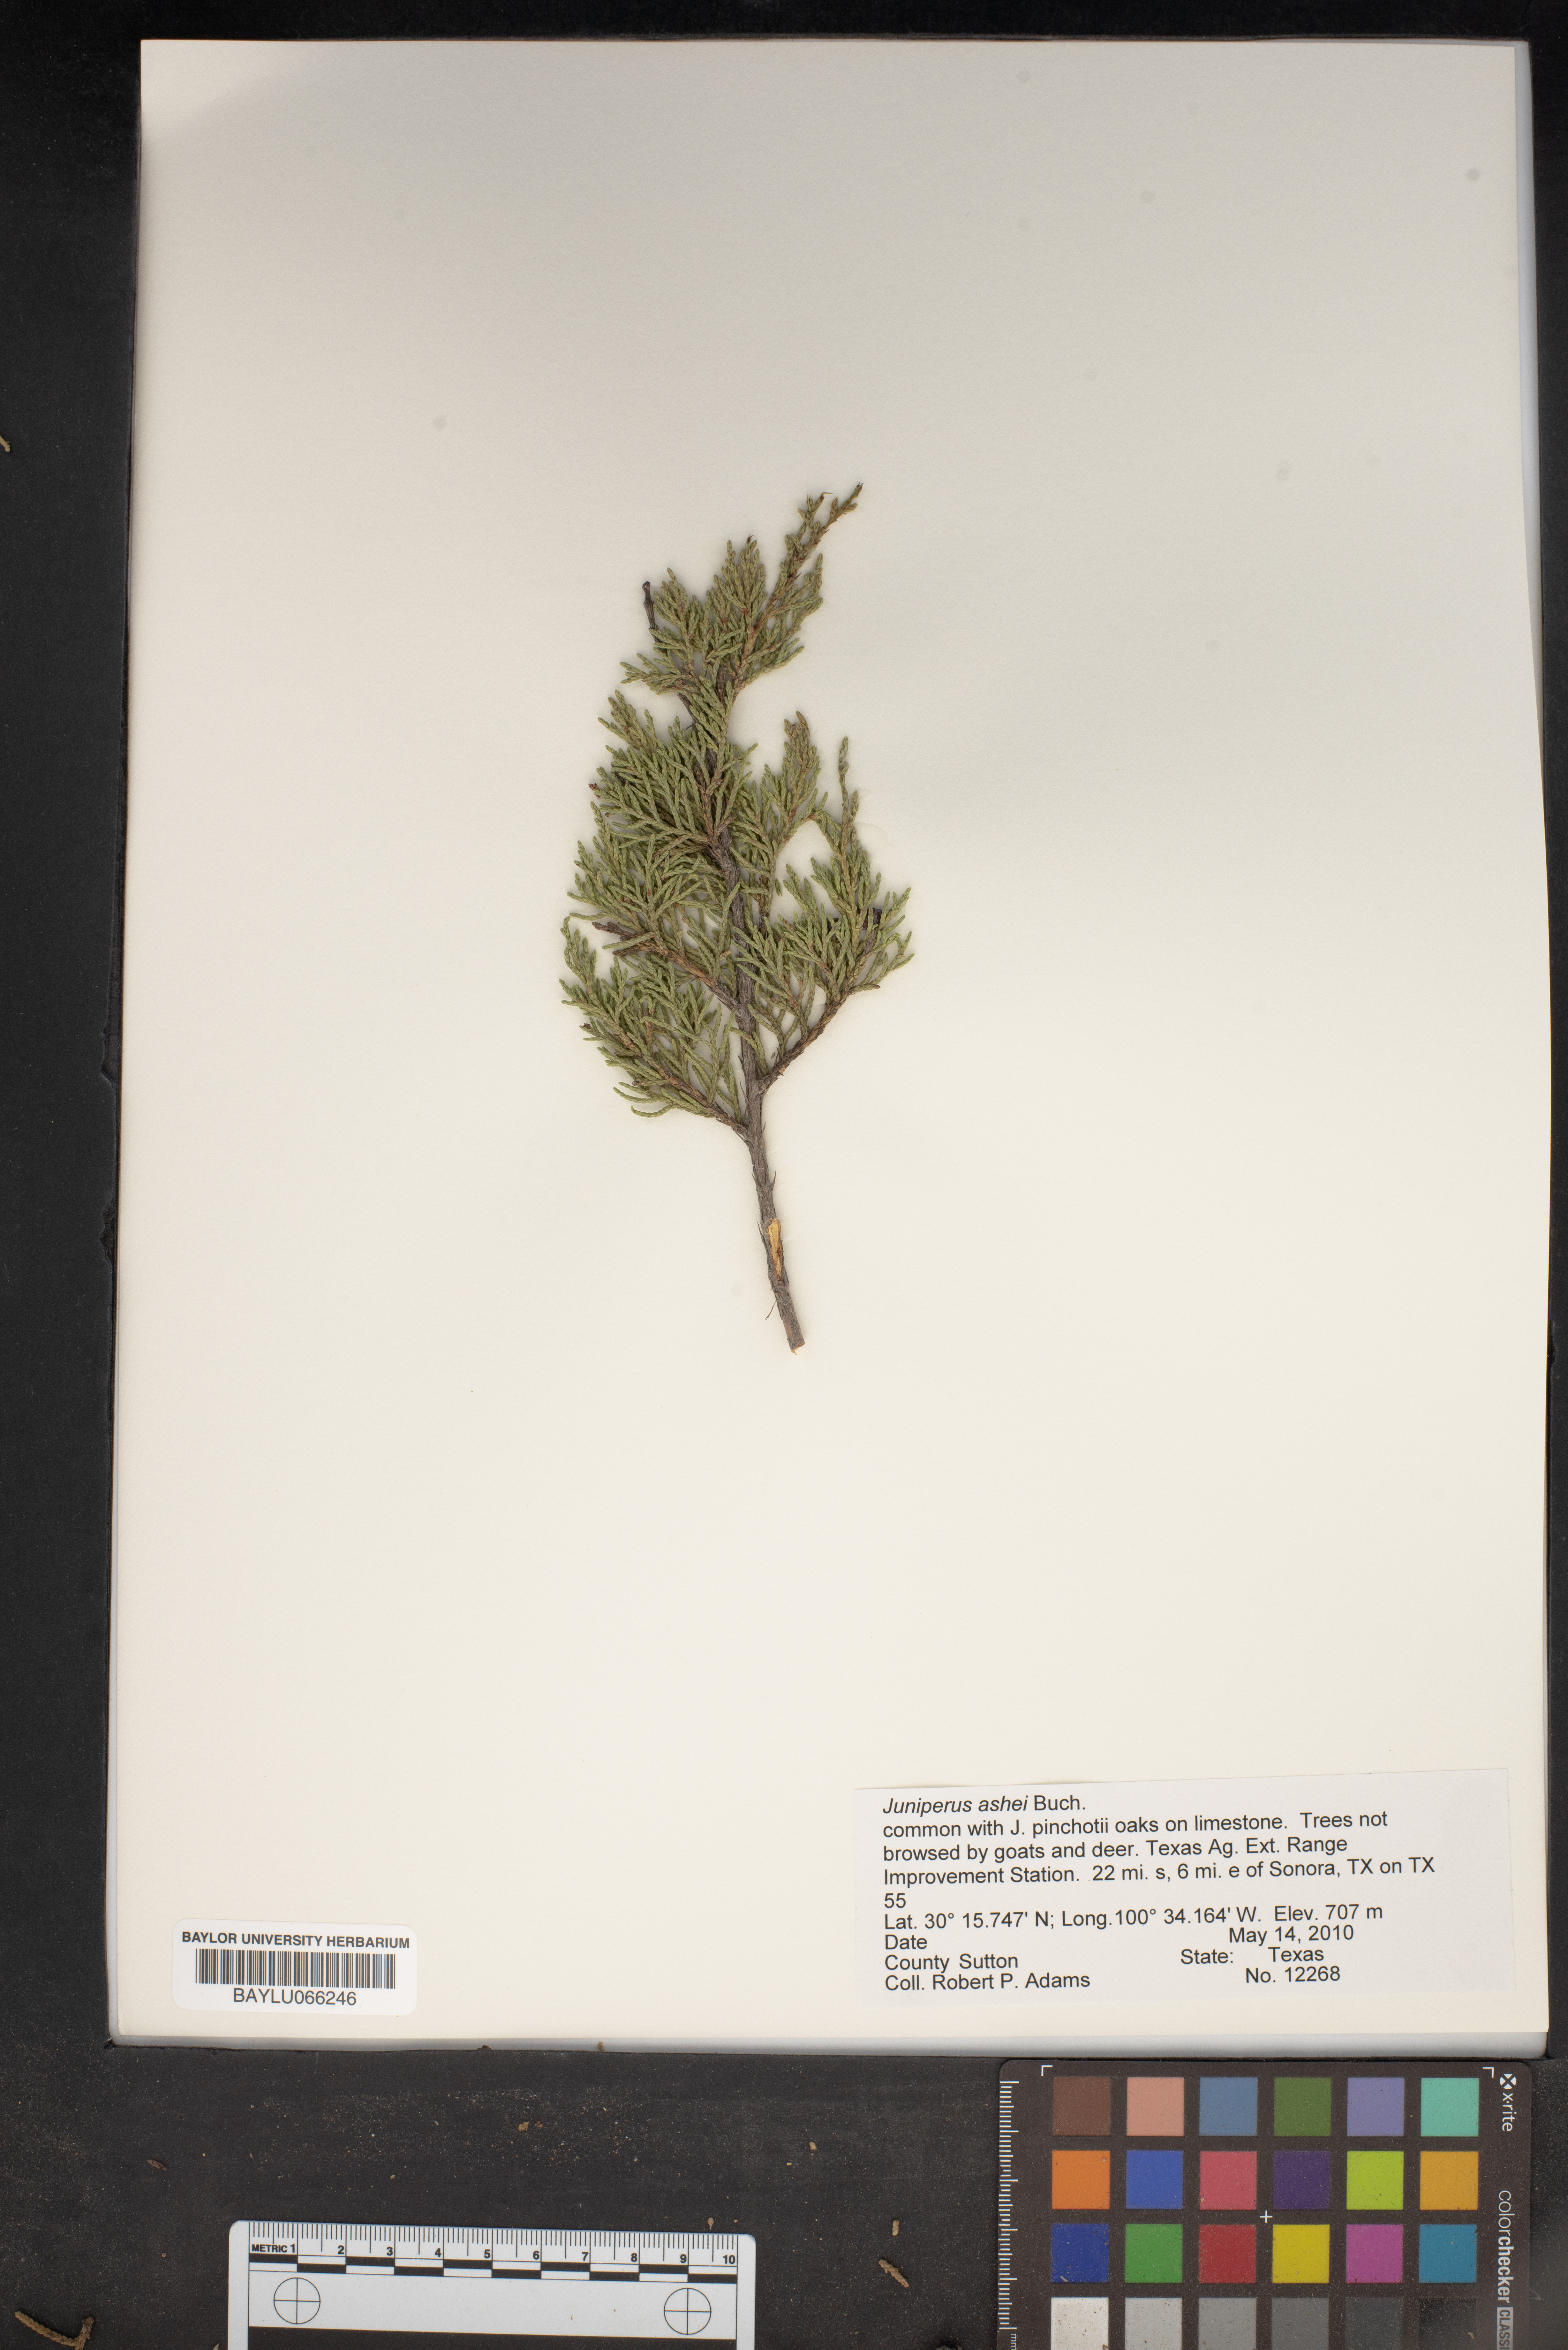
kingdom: Plantae
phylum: Tracheophyta
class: Pinopsida
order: Pinales
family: Cupressaceae
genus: Juniperus
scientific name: Juniperus ashei
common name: Mexican juniper
